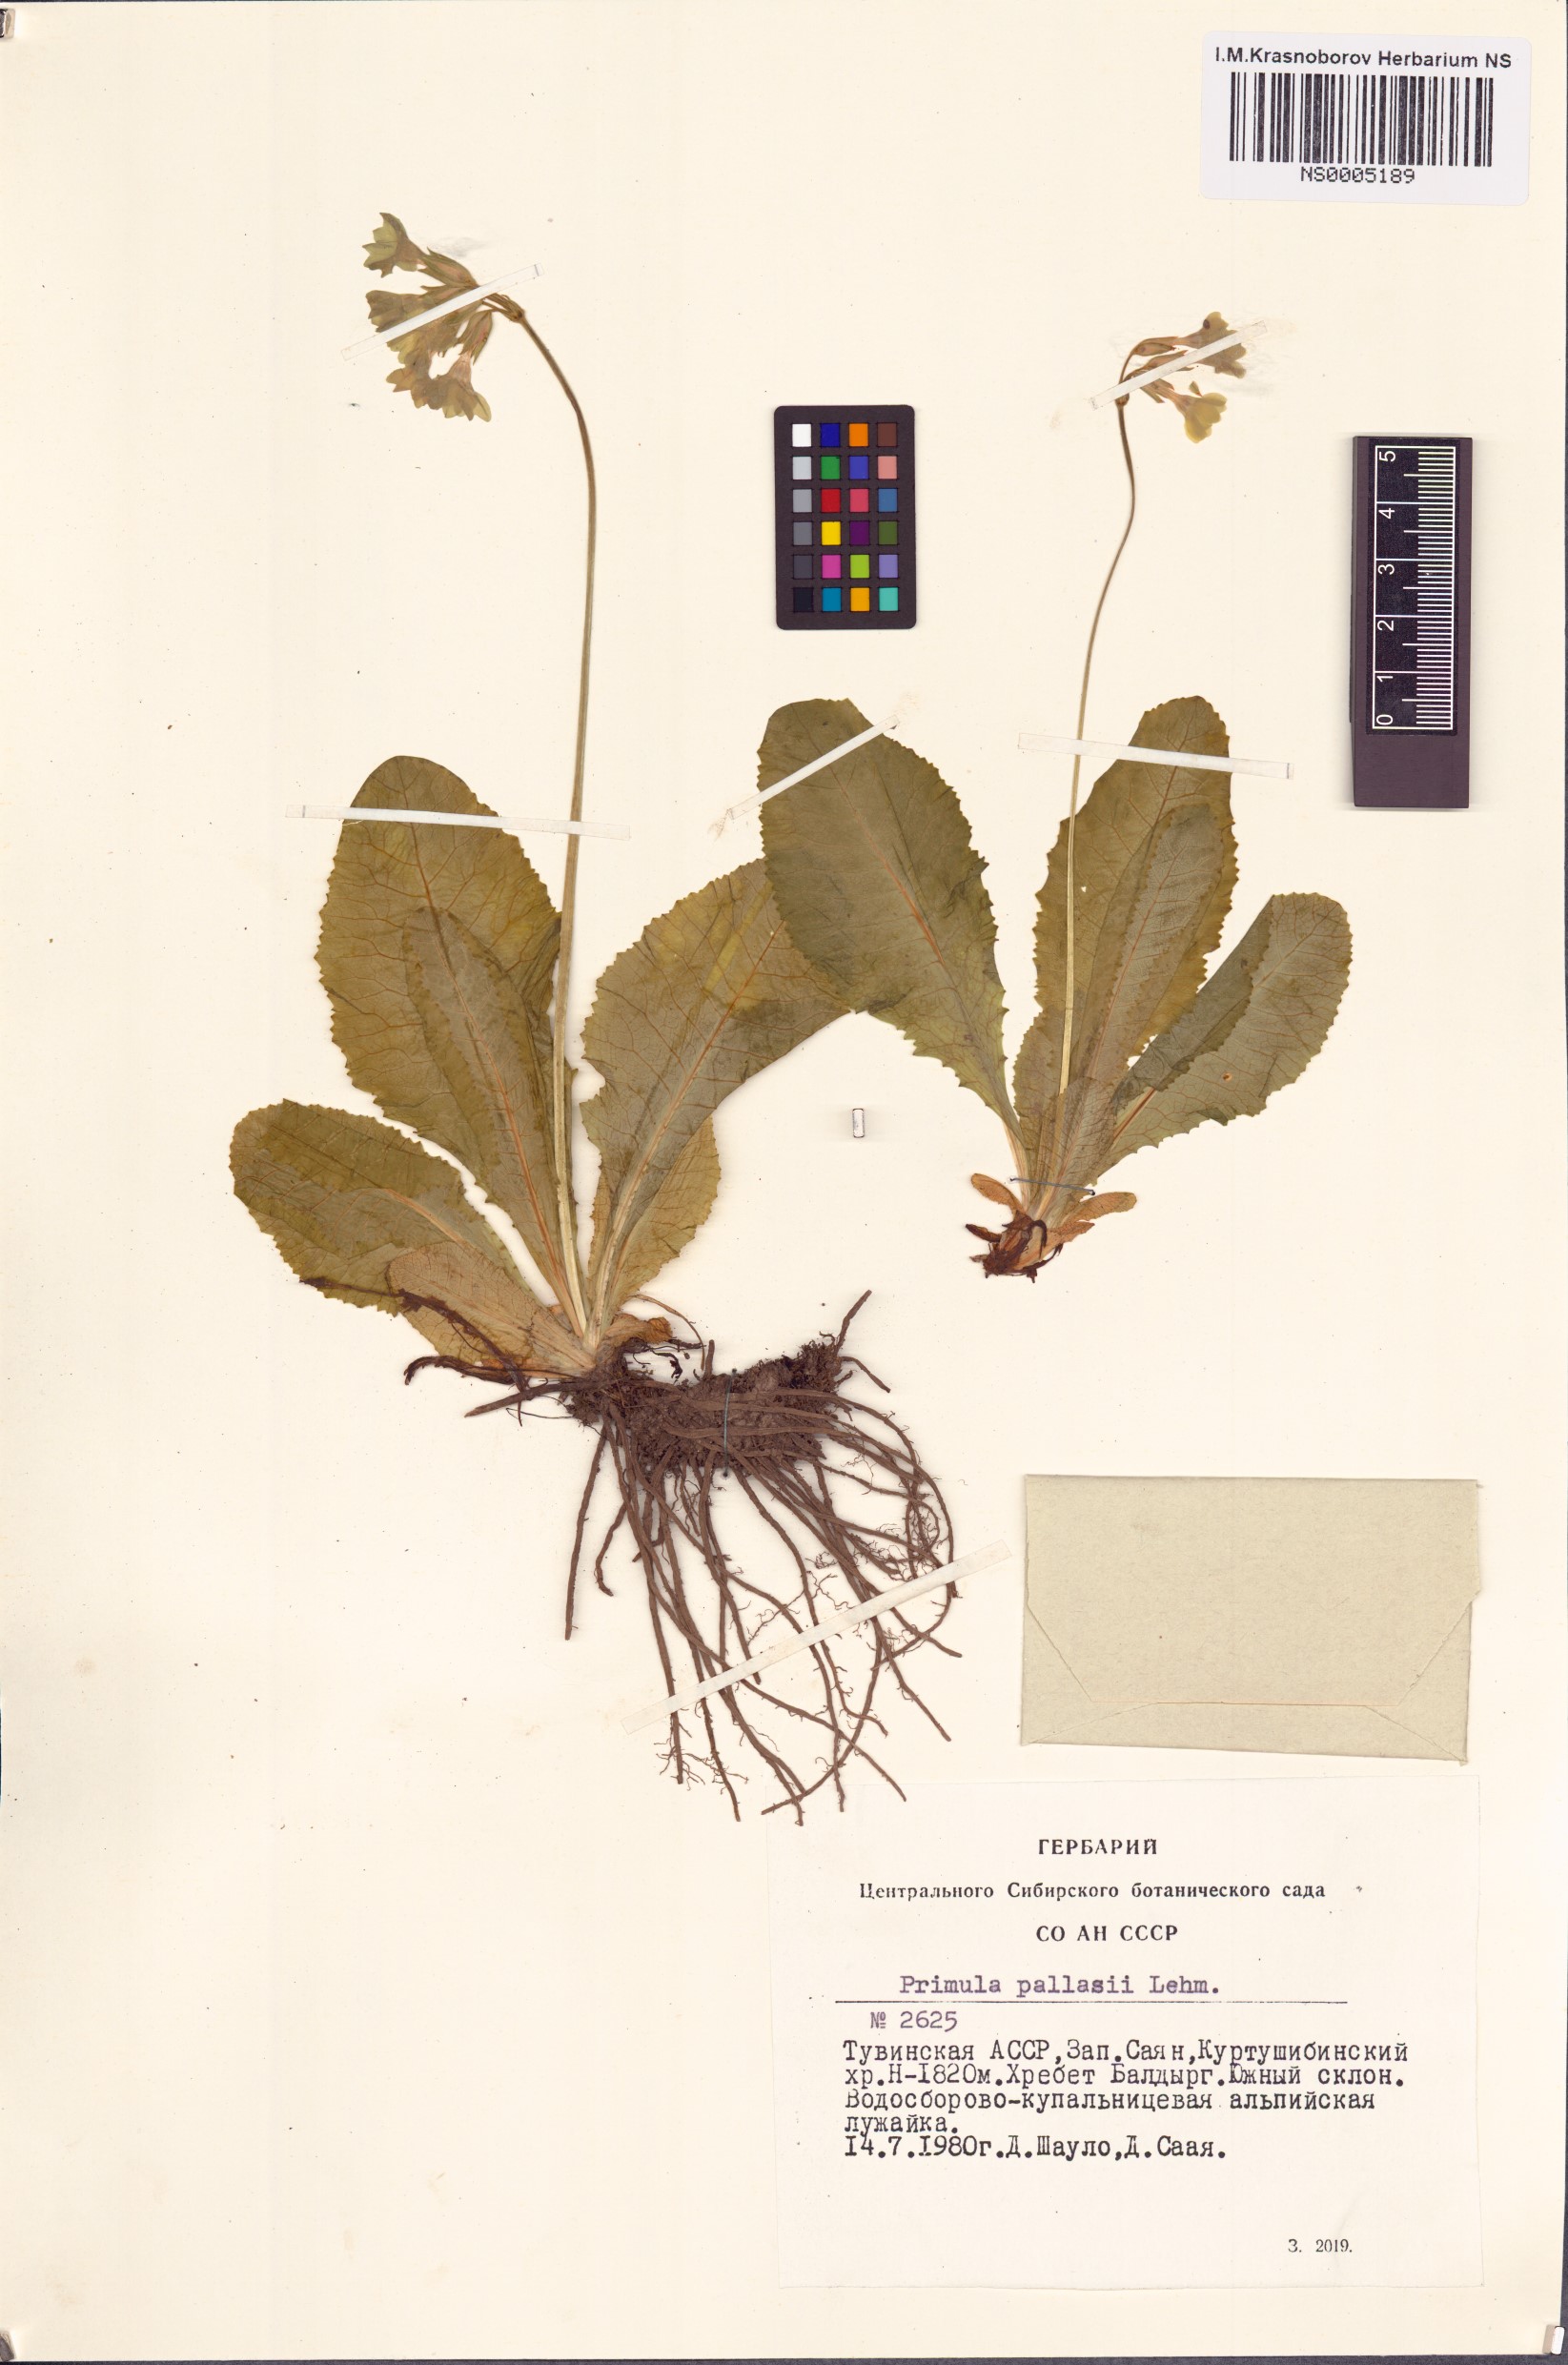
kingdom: Plantae
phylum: Tracheophyta
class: Magnoliopsida
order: Ericales
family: Primulaceae
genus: Primula
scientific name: Primula elatior
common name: Oxlip
